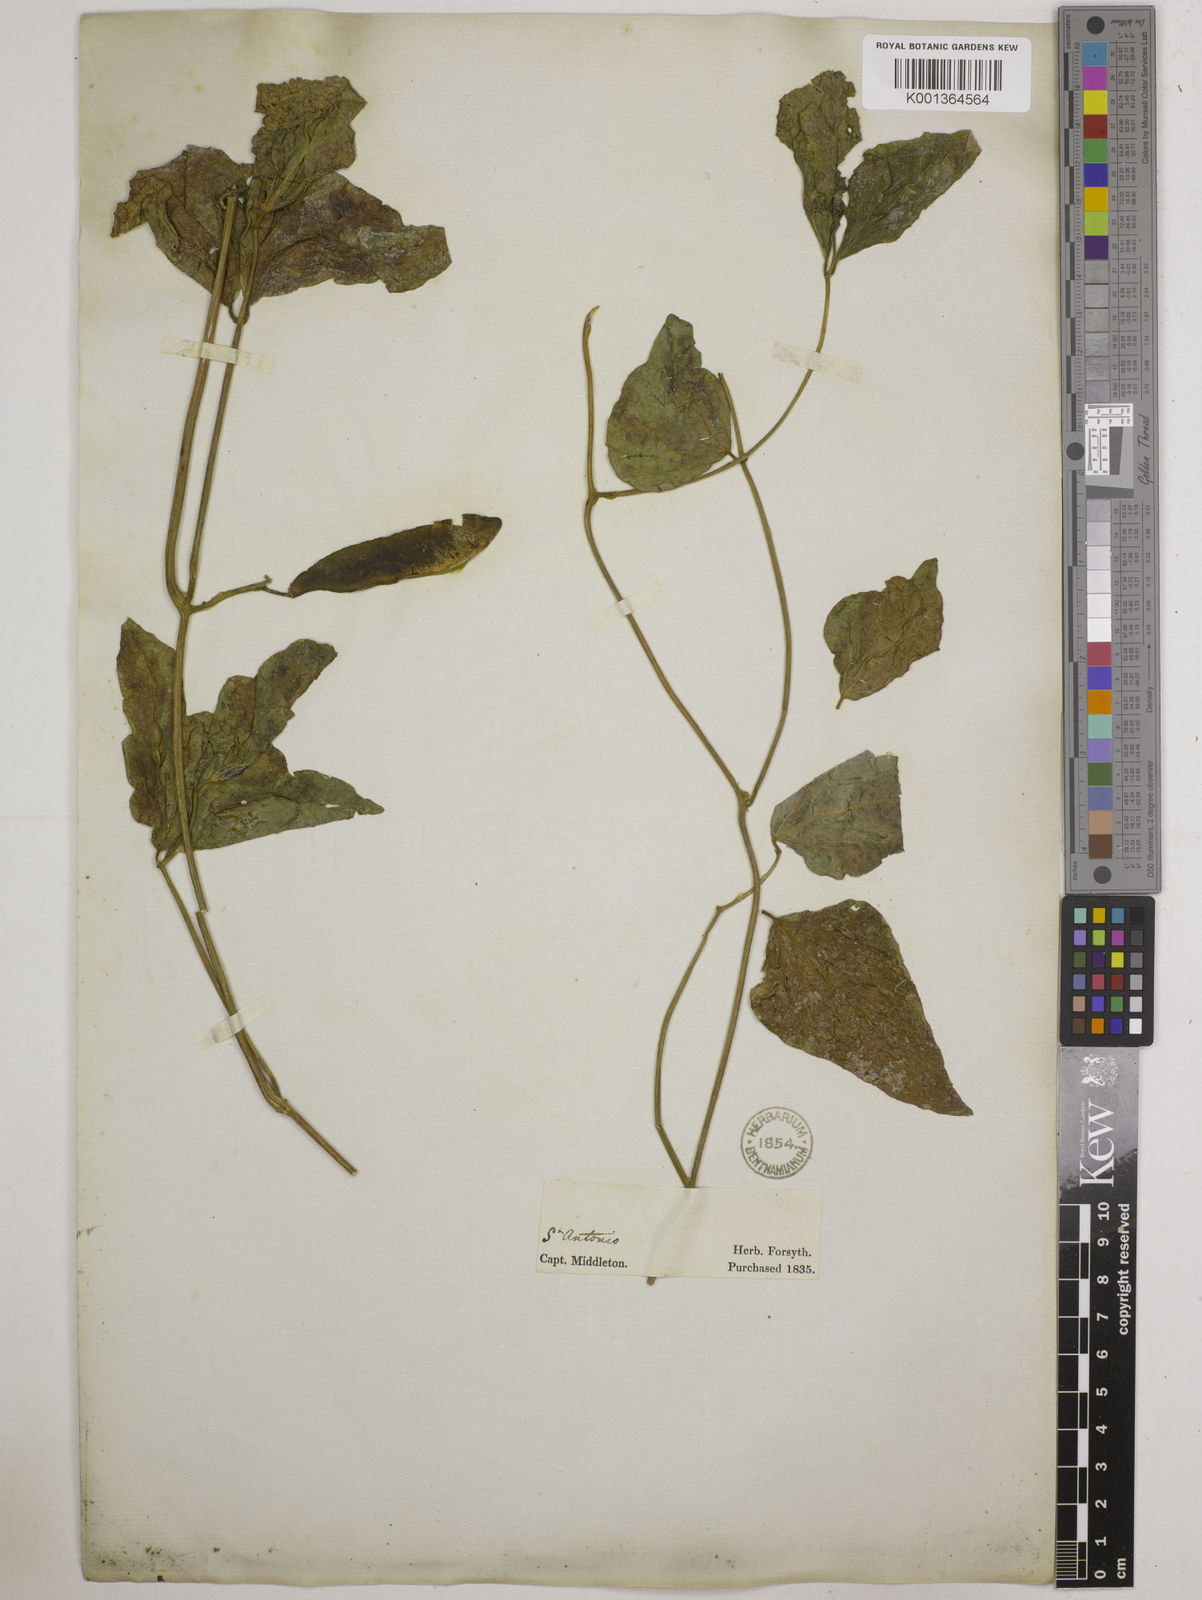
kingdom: Plantae
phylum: Tracheophyta
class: Magnoliopsida
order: Fabales
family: Fabaceae
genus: Phaseolus
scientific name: Phaseolus coccineus
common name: Runner bean
